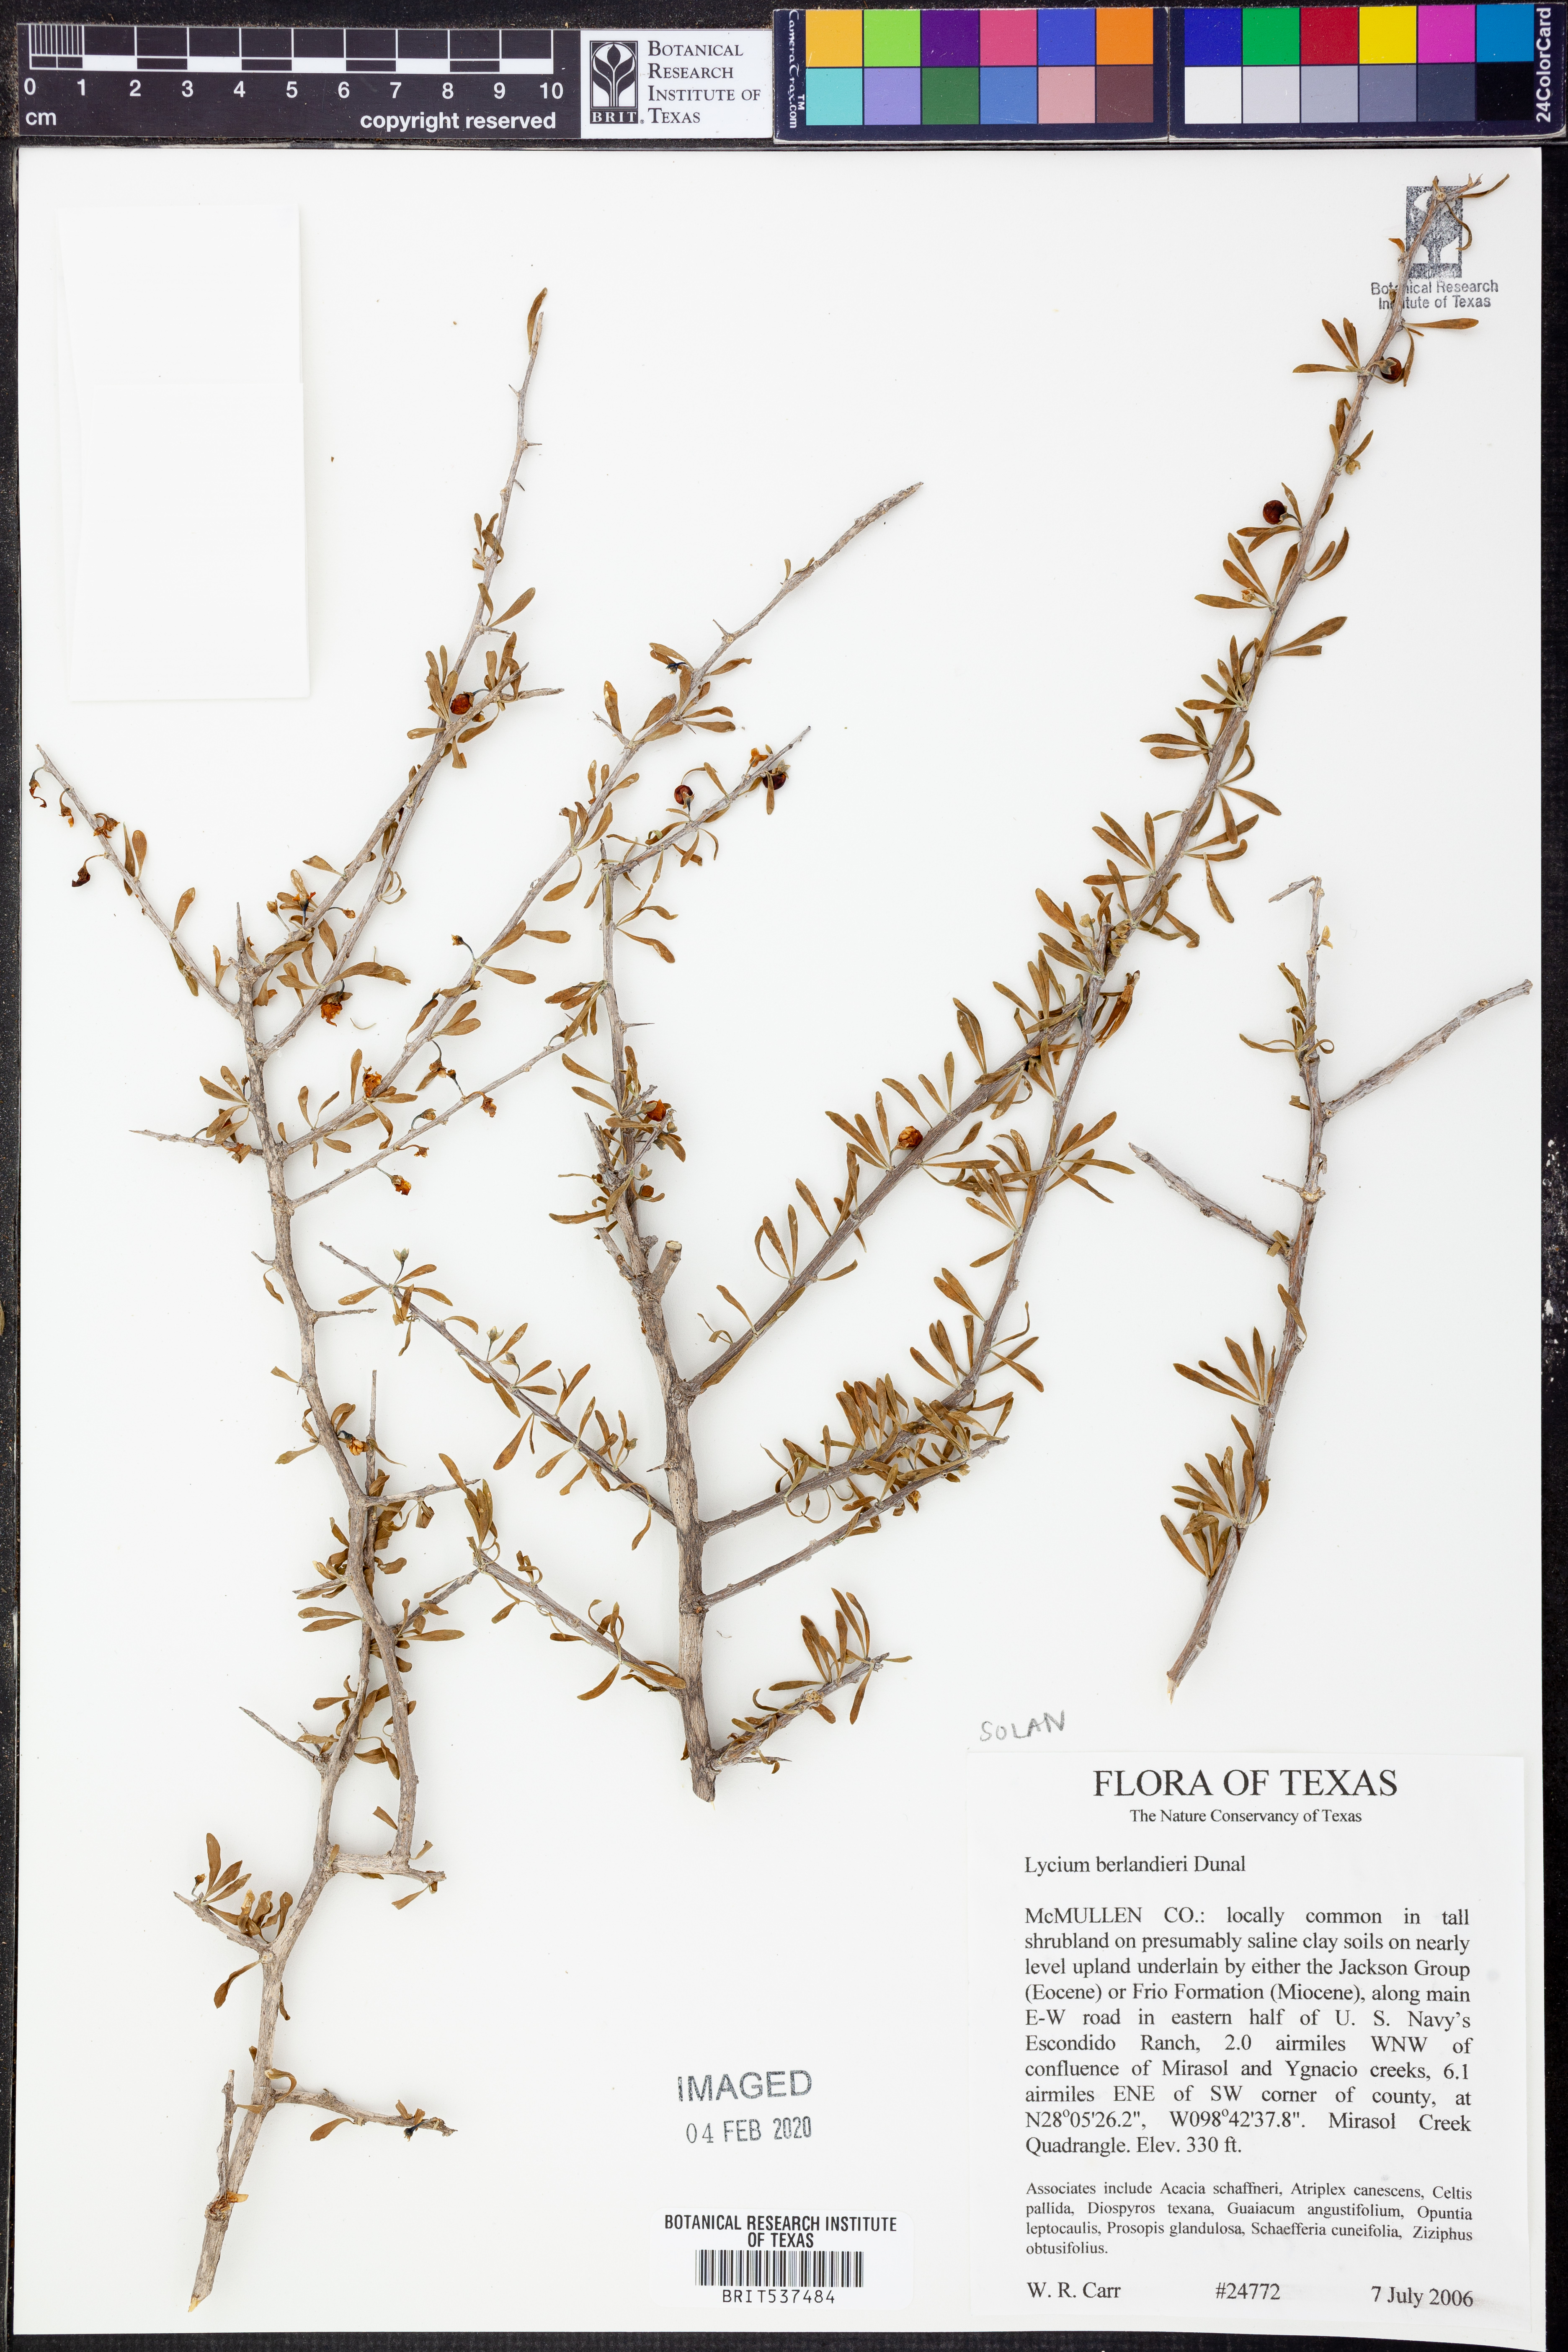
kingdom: Plantae
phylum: Tracheophyta
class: Magnoliopsida
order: Solanales
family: Solanaceae
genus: Lycium
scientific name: Lycium berlandieri
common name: Berlandier wolfberry
